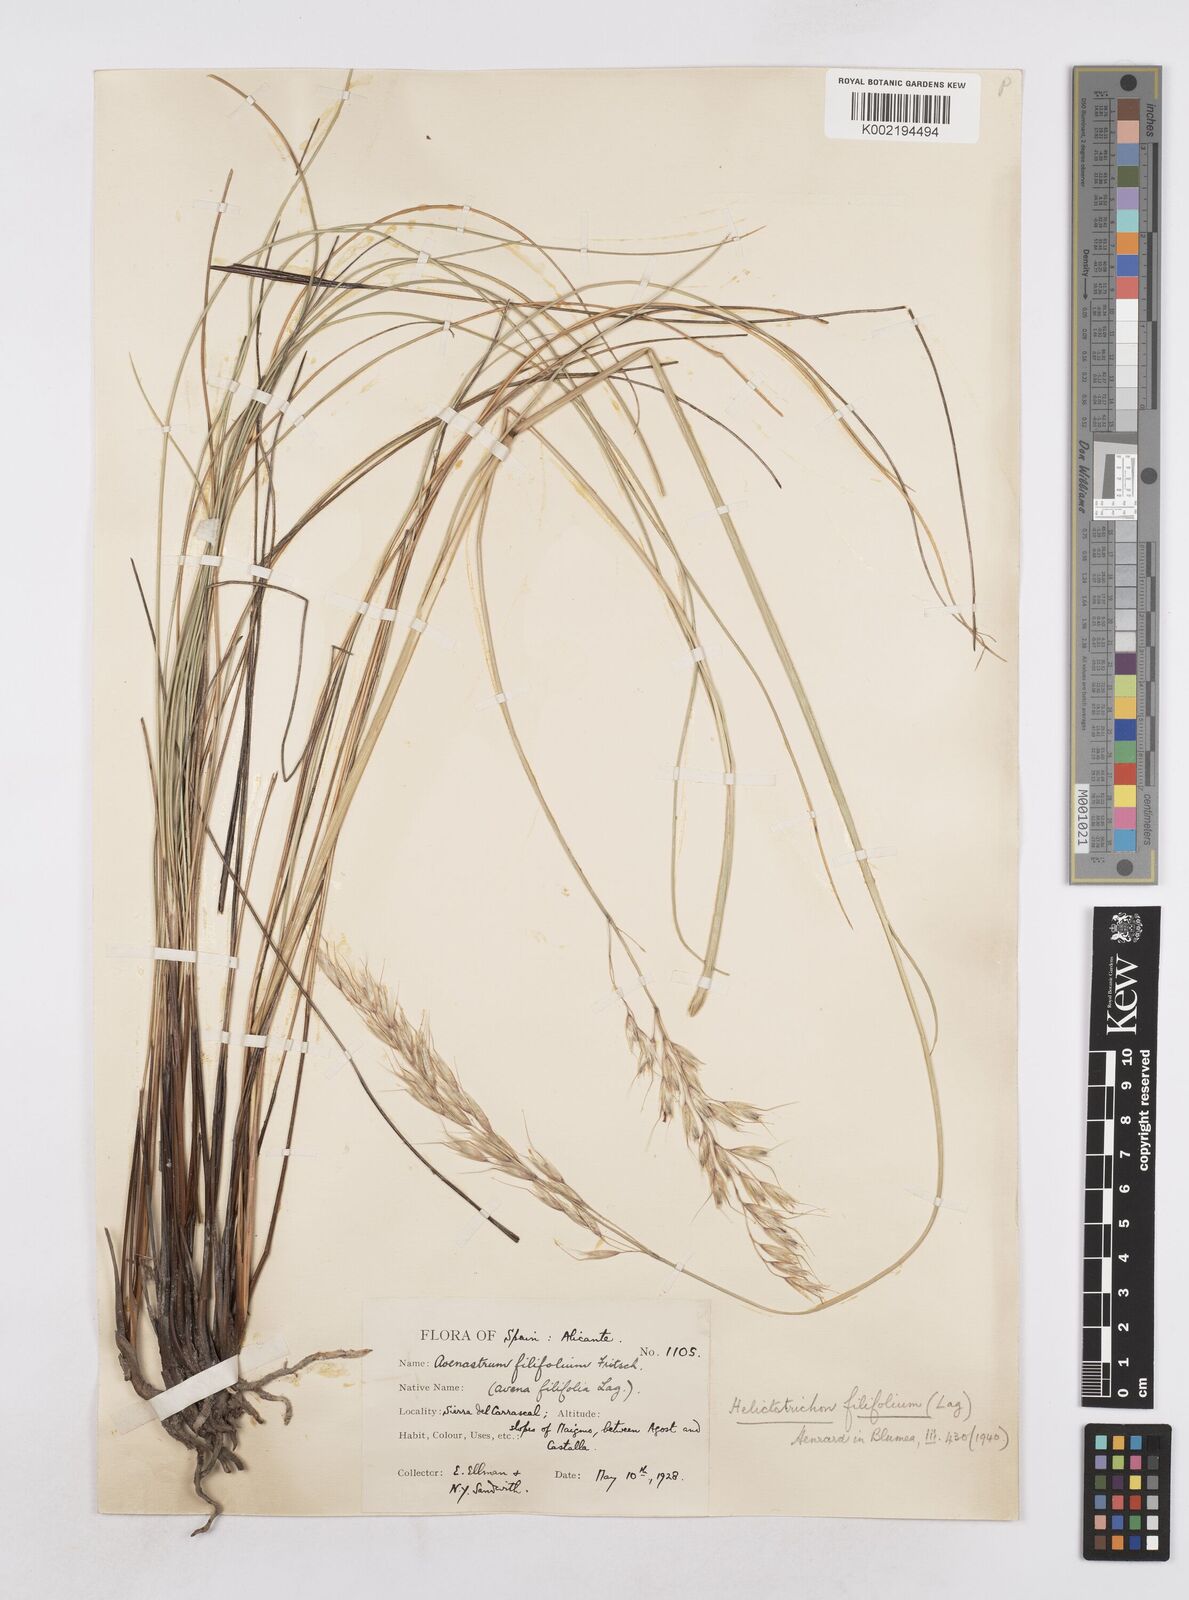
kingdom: Plantae
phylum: Tracheophyta
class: Liliopsida
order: Poales
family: Poaceae
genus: Helictotrichon
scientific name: Helictotrichon filifolium
